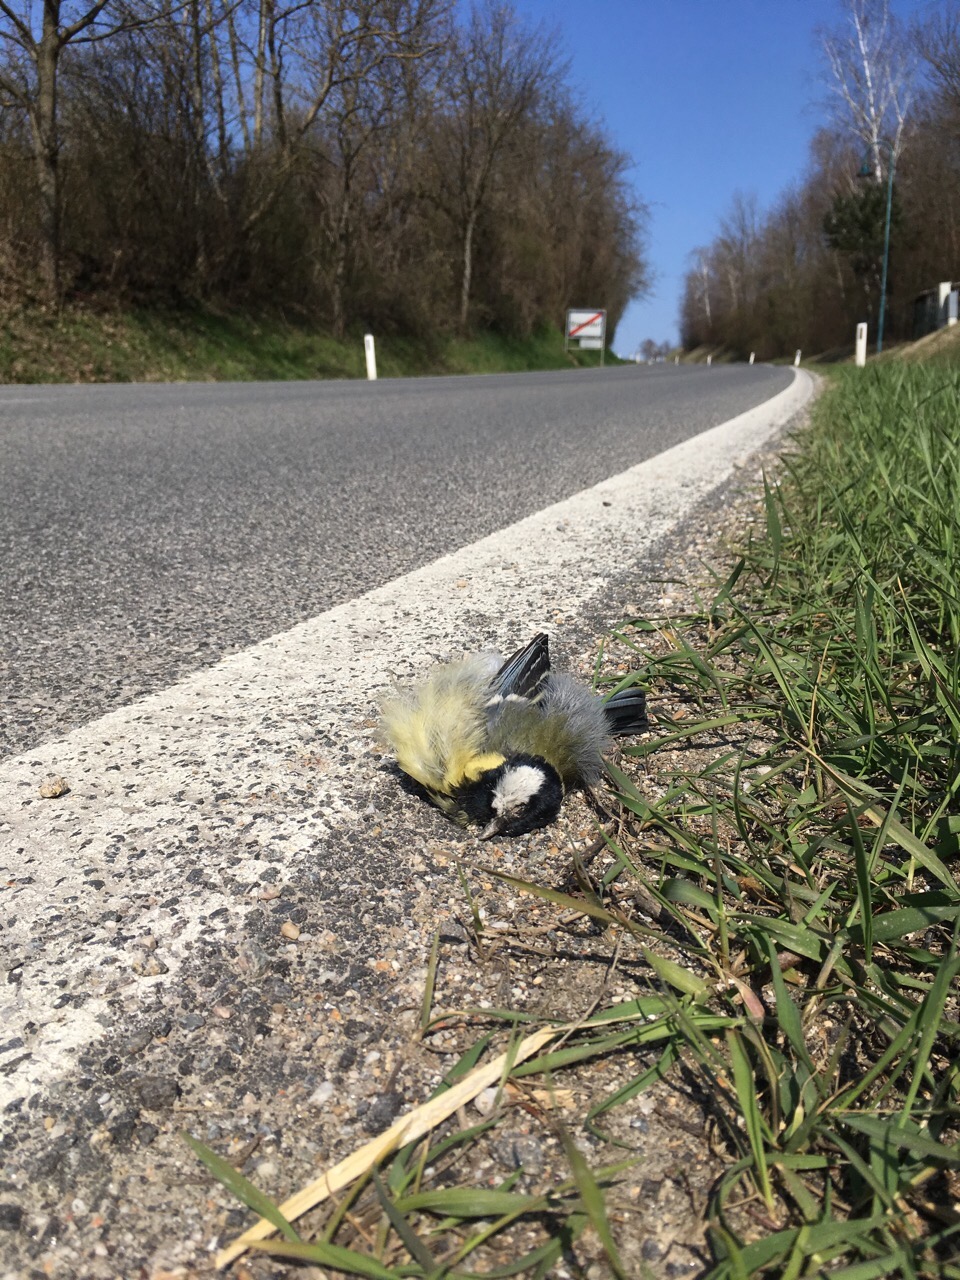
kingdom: Animalia
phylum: Chordata
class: Aves
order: Passeriformes
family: Paridae
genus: Parus
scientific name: Parus major
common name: Great tit
